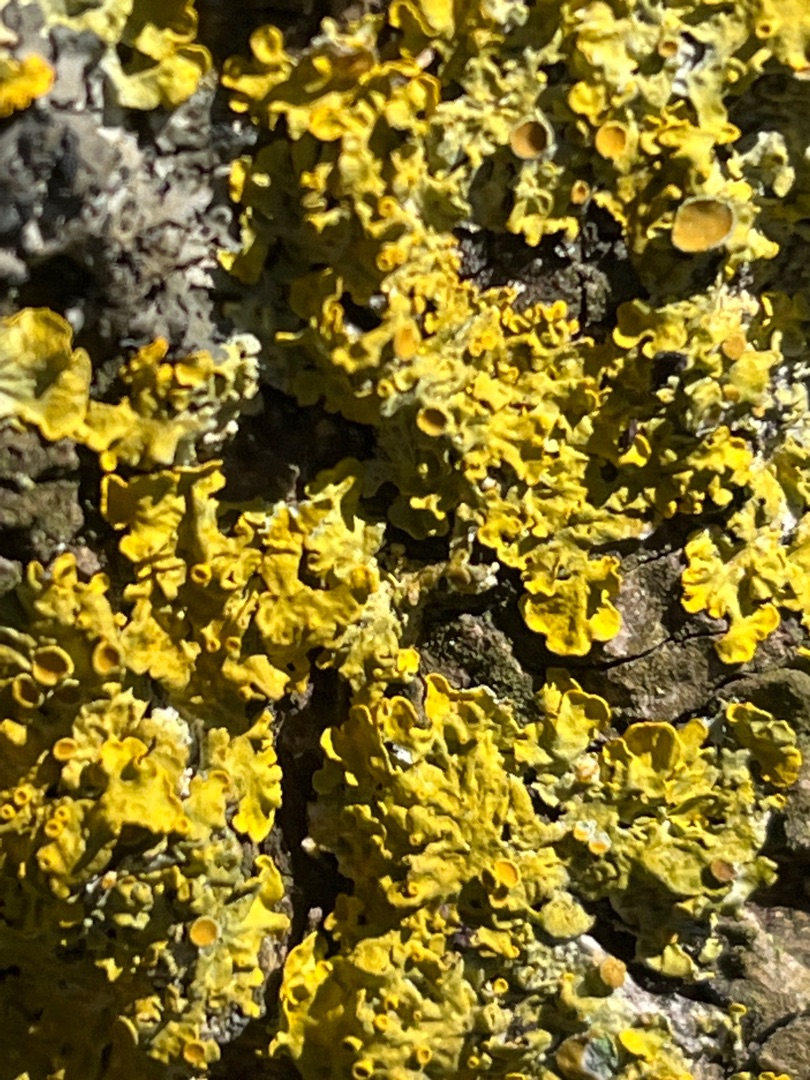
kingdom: Fungi
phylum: Ascomycota
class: Lecanoromycetes
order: Teloschistales
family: Teloschistaceae
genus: Xanthoria
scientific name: Xanthoria parietina
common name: Almindelig væggelav
